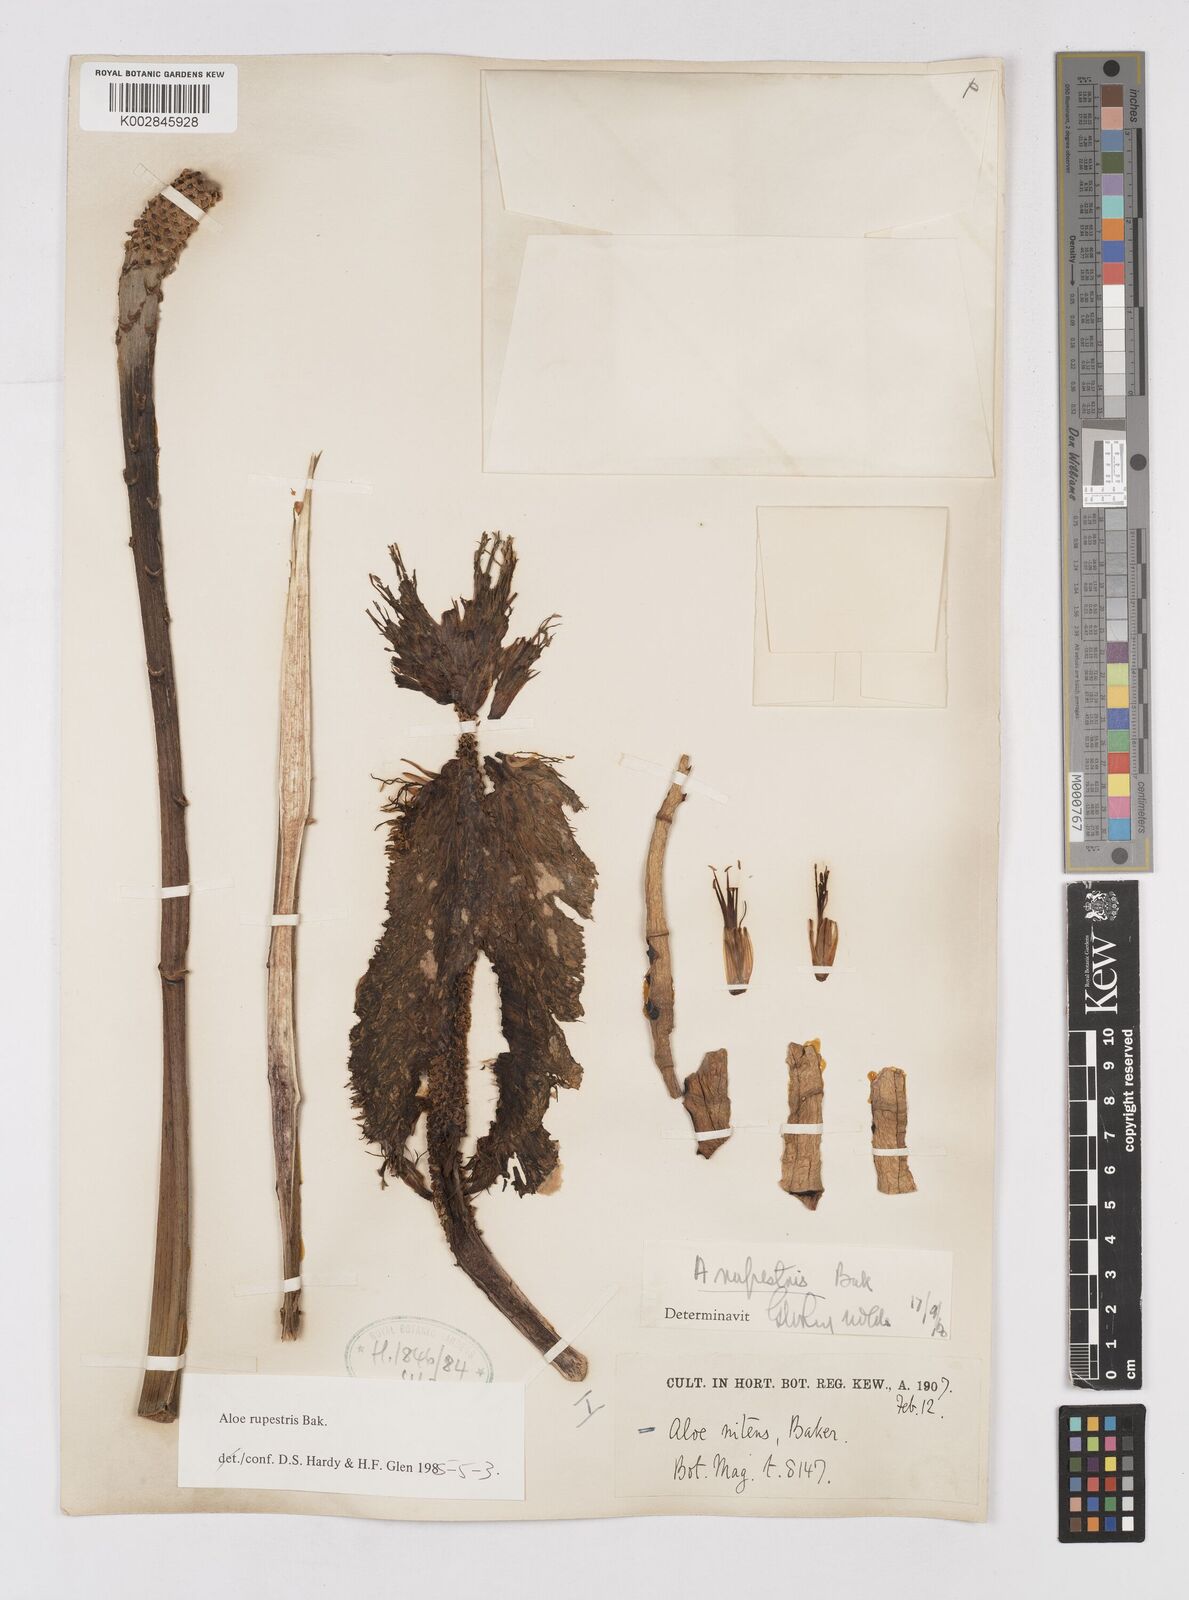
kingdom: Plantae
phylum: Tracheophyta
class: Liliopsida
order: Asparagales
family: Asphodelaceae
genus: Aloe
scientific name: Aloe rupestris
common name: Bottle-brush aloe
